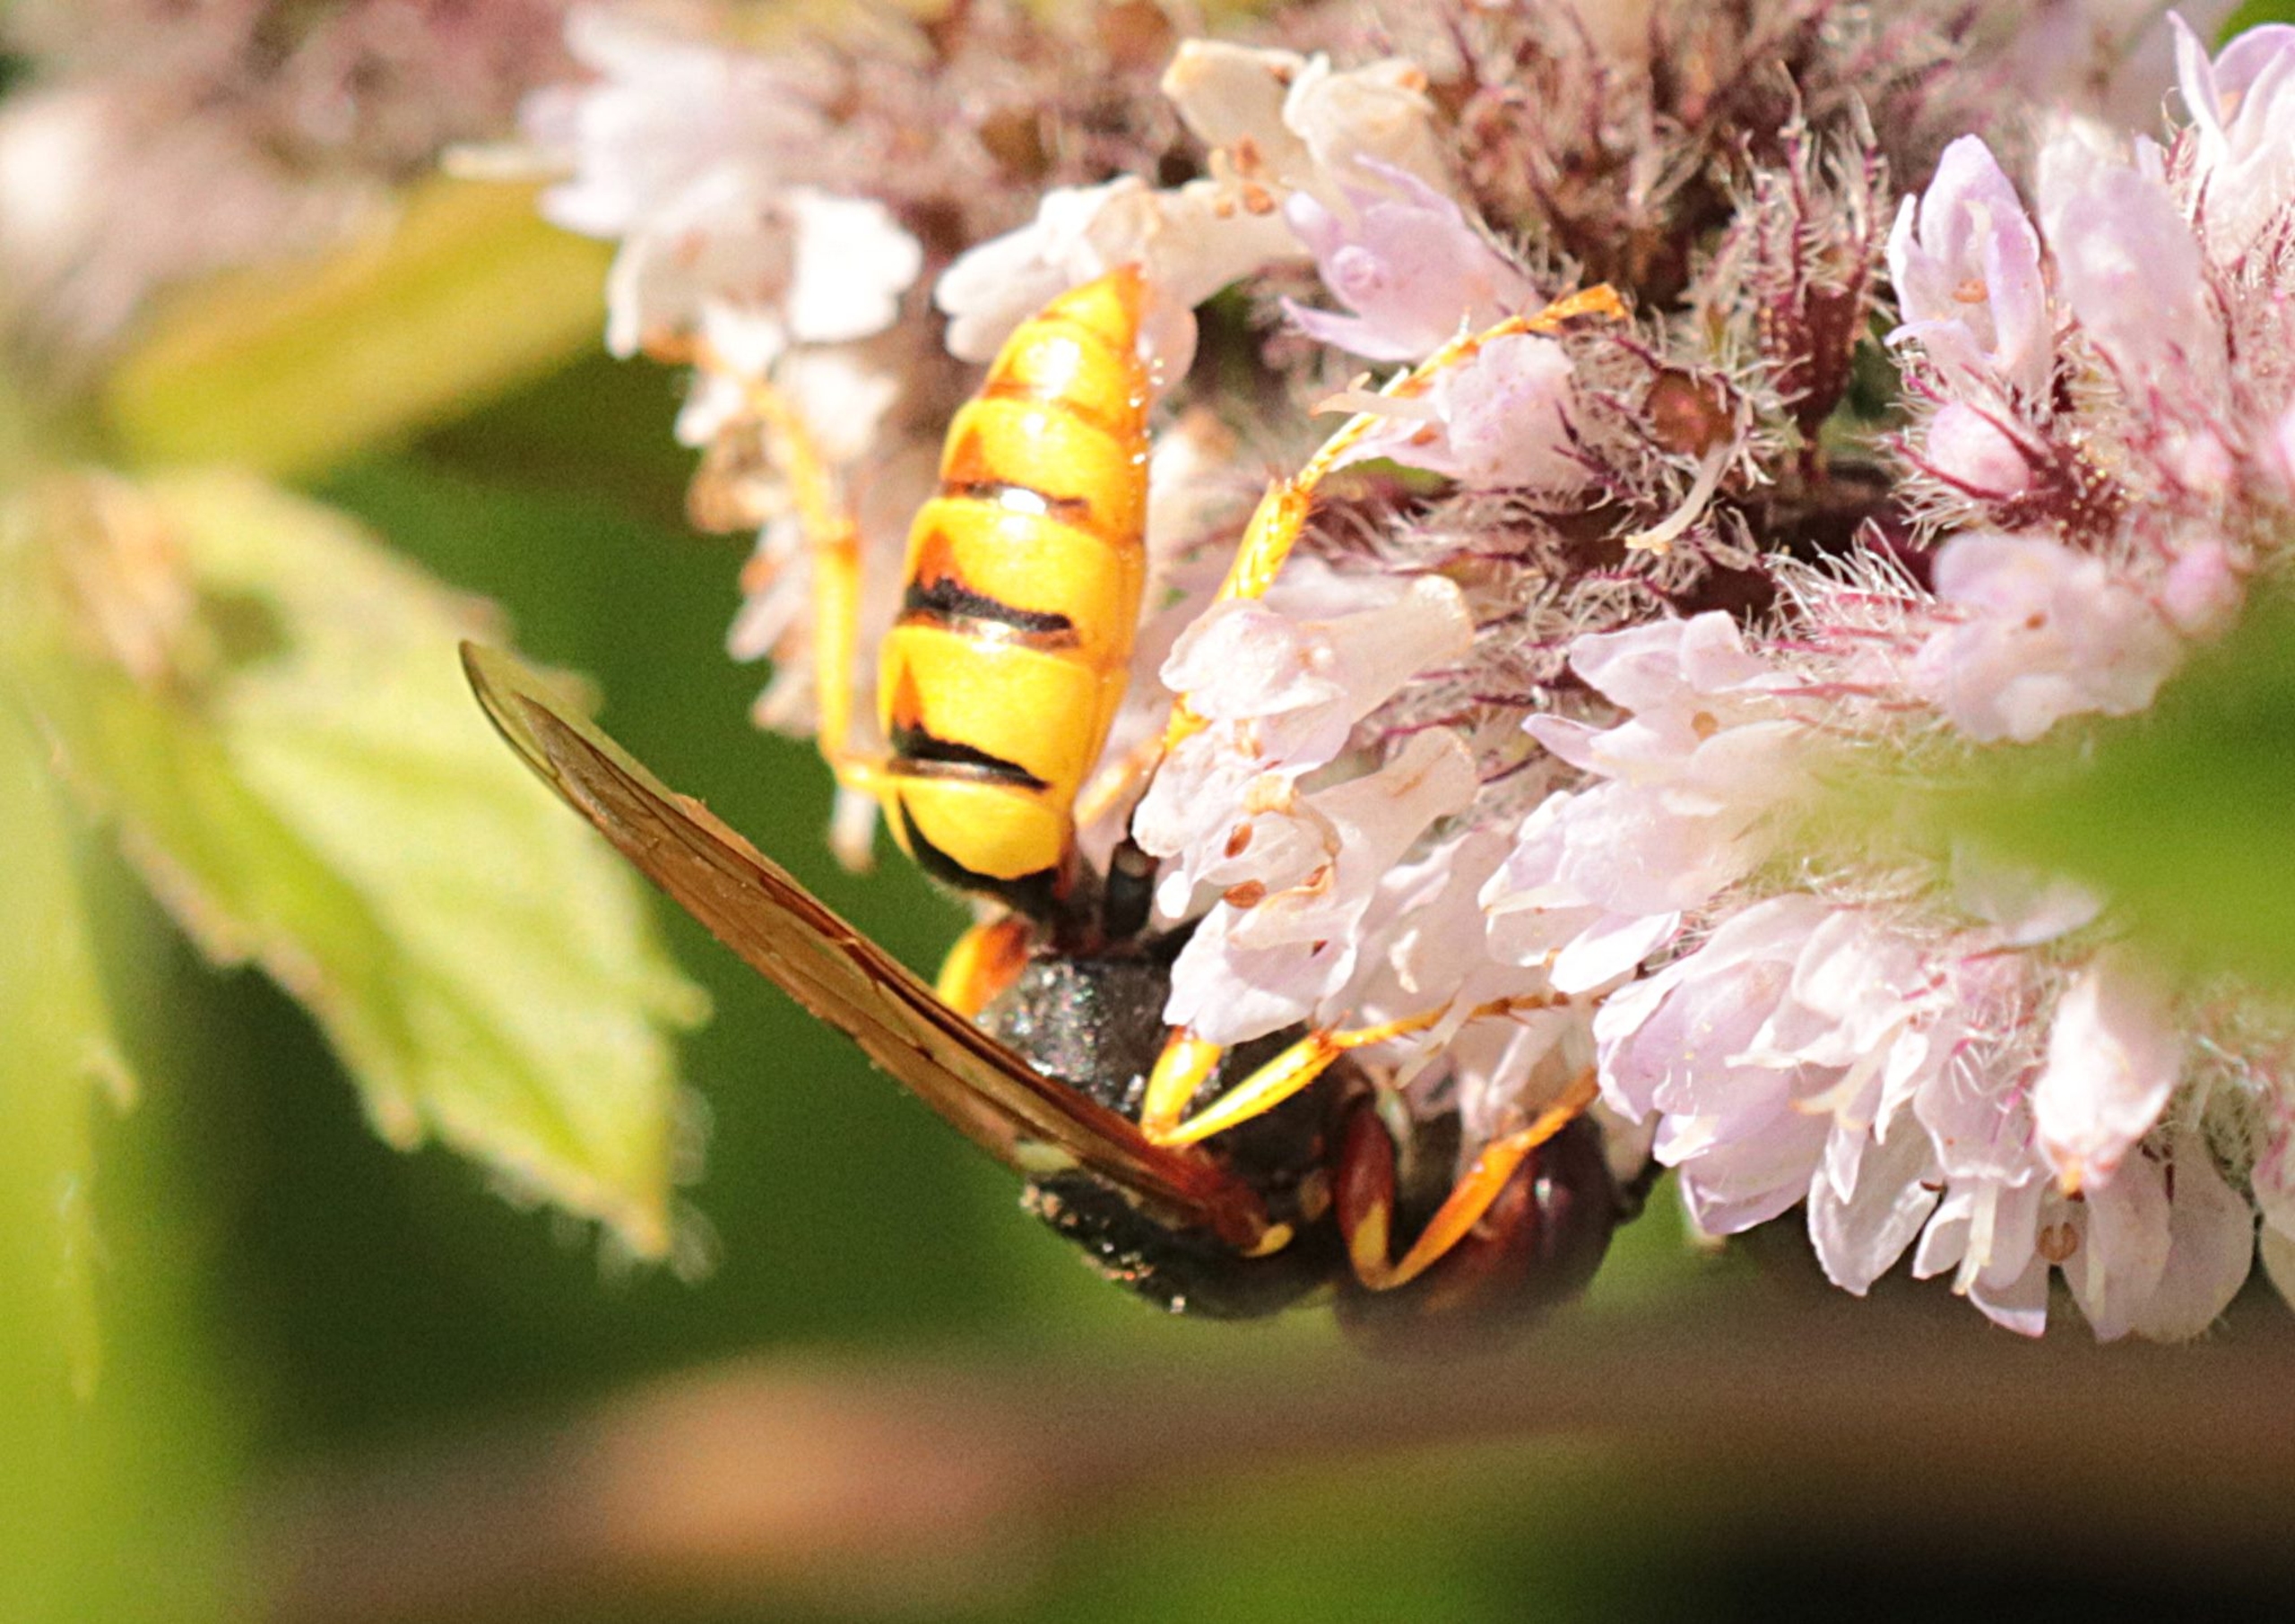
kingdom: Animalia
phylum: Arthropoda
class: Insecta
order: Hymenoptera
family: Crabronidae
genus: Philanthus
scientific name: Philanthus triangulum
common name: Biulv
